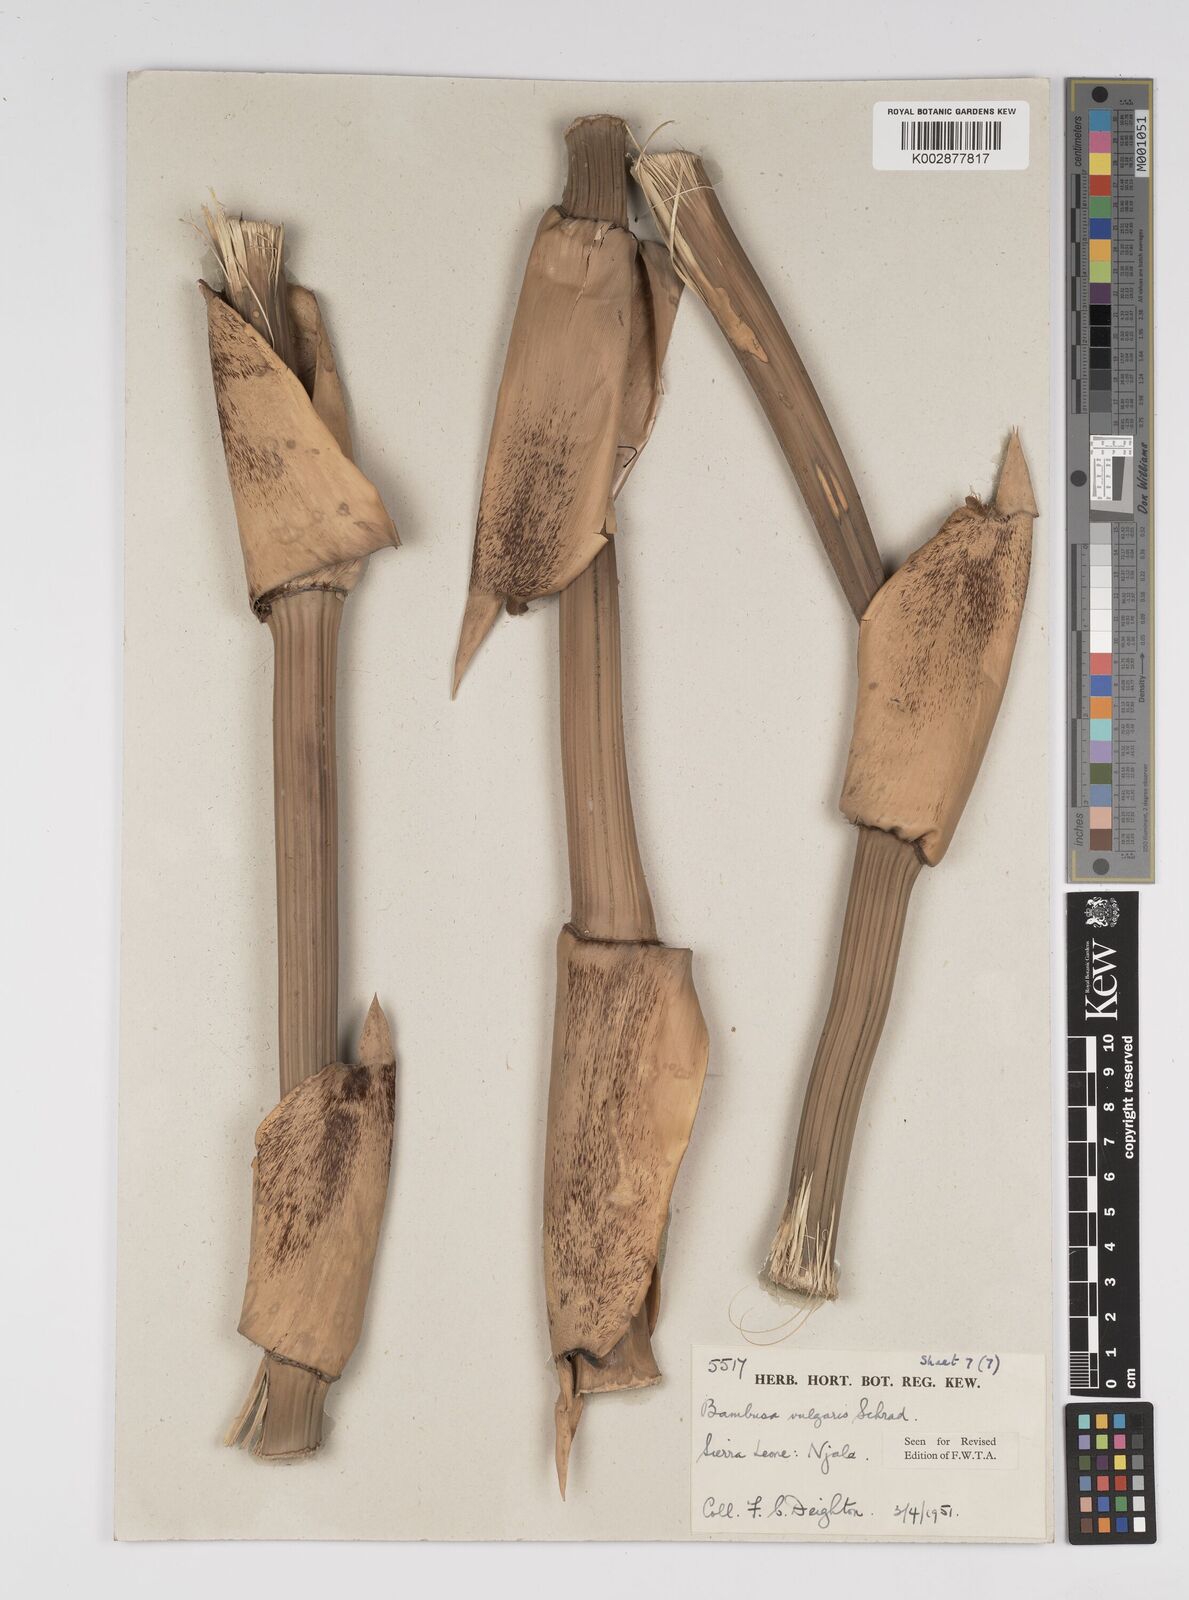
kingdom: Plantae
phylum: Tracheophyta
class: Liliopsida
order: Poales
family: Poaceae
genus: Bambusa
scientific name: Bambusa vulgaris
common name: Common bamboo
